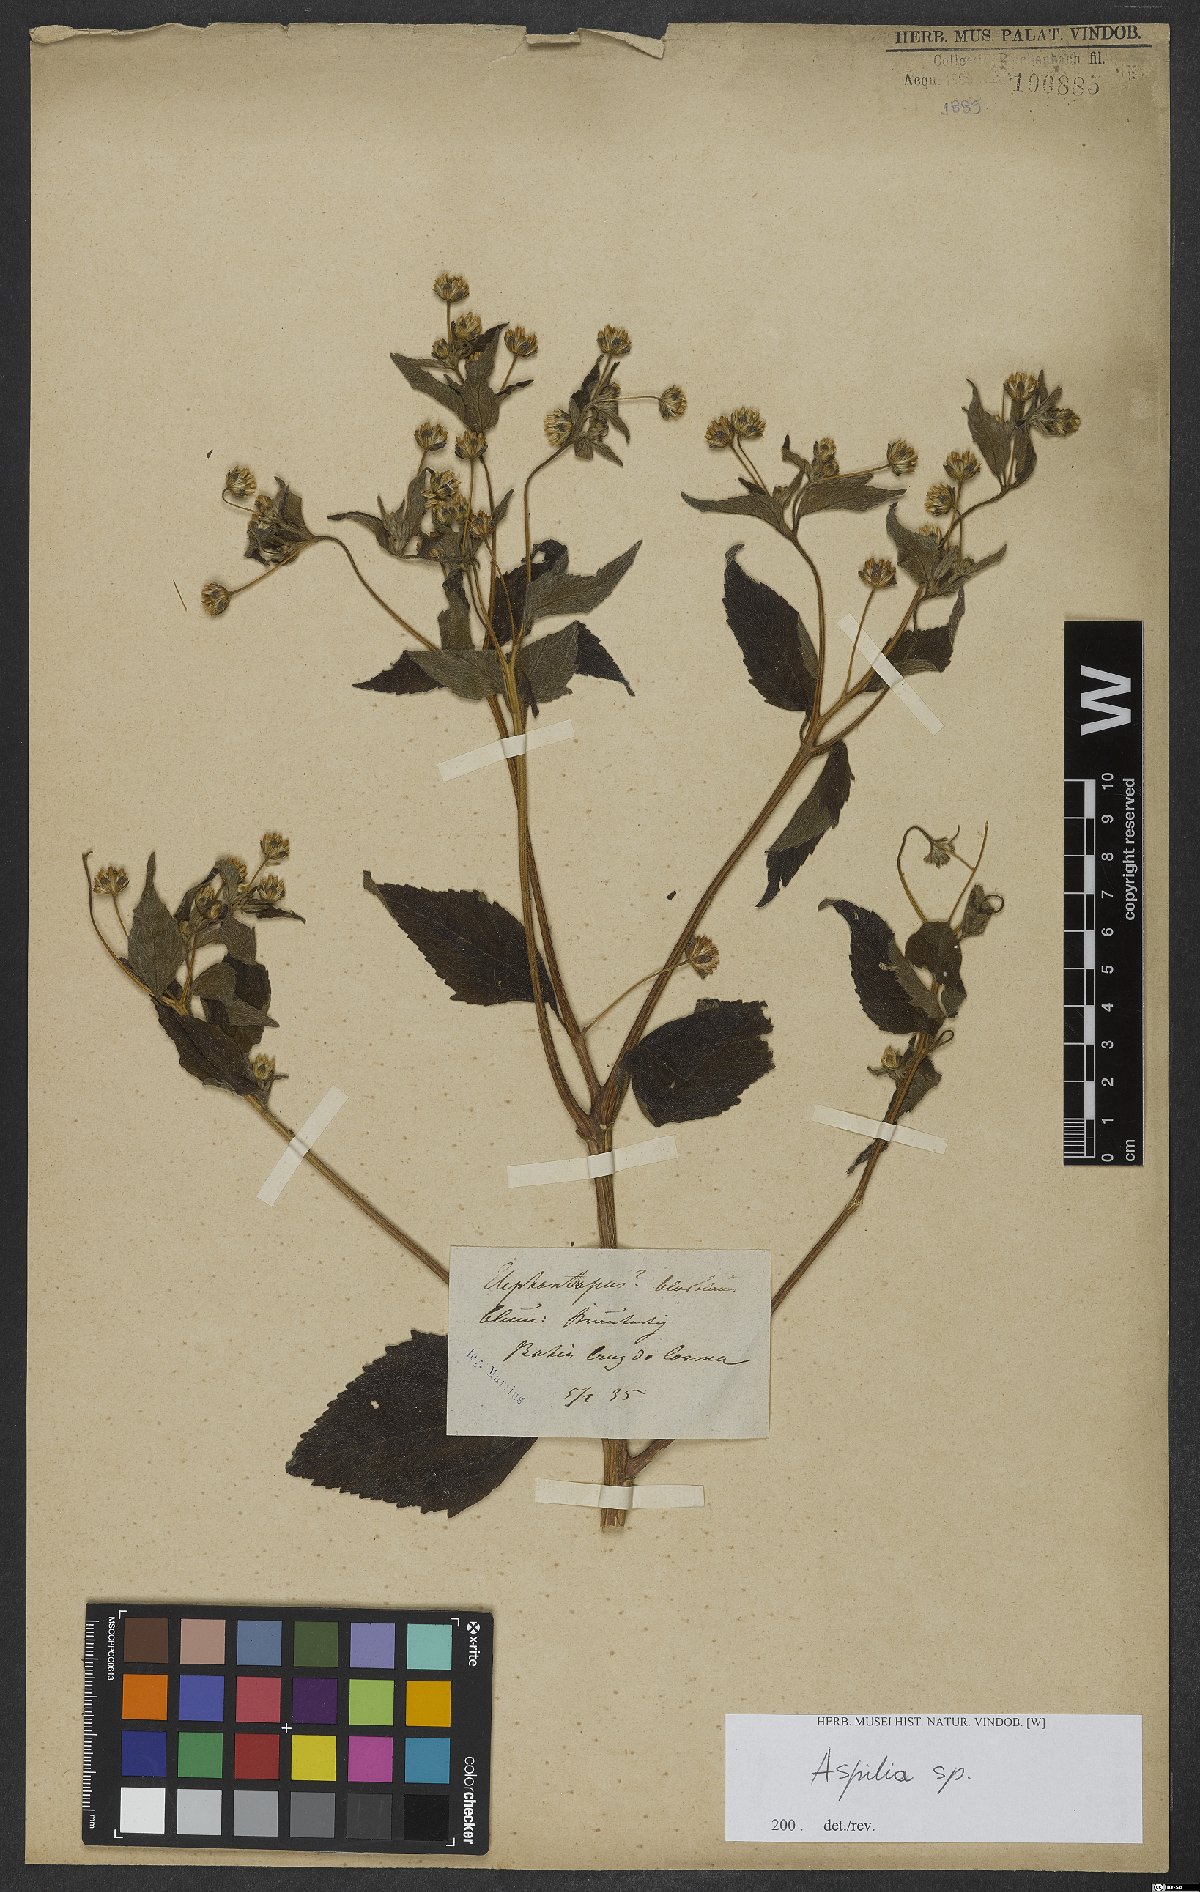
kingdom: Plantae
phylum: Tracheophyta
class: Magnoliopsida
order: Asterales
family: Asteraceae
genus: Aspilia
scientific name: Aspilia
